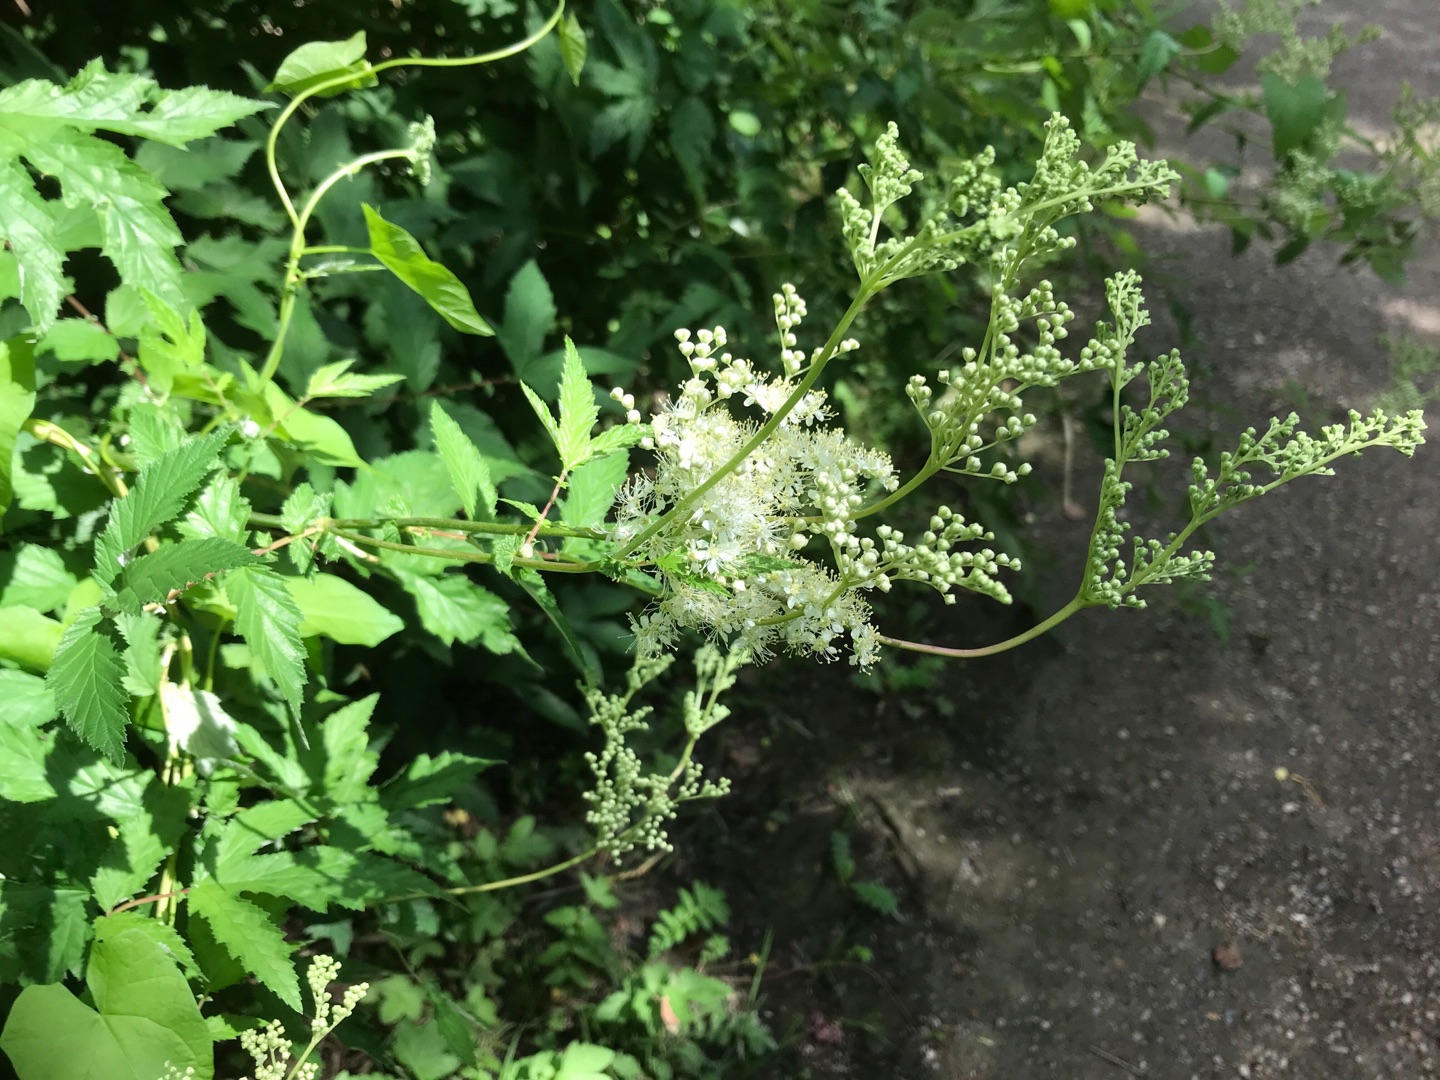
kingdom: Plantae
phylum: Tracheophyta
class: Magnoliopsida
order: Rosales
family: Rosaceae
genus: Filipendula
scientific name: Filipendula ulmaria
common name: Almindelig mjødurt
